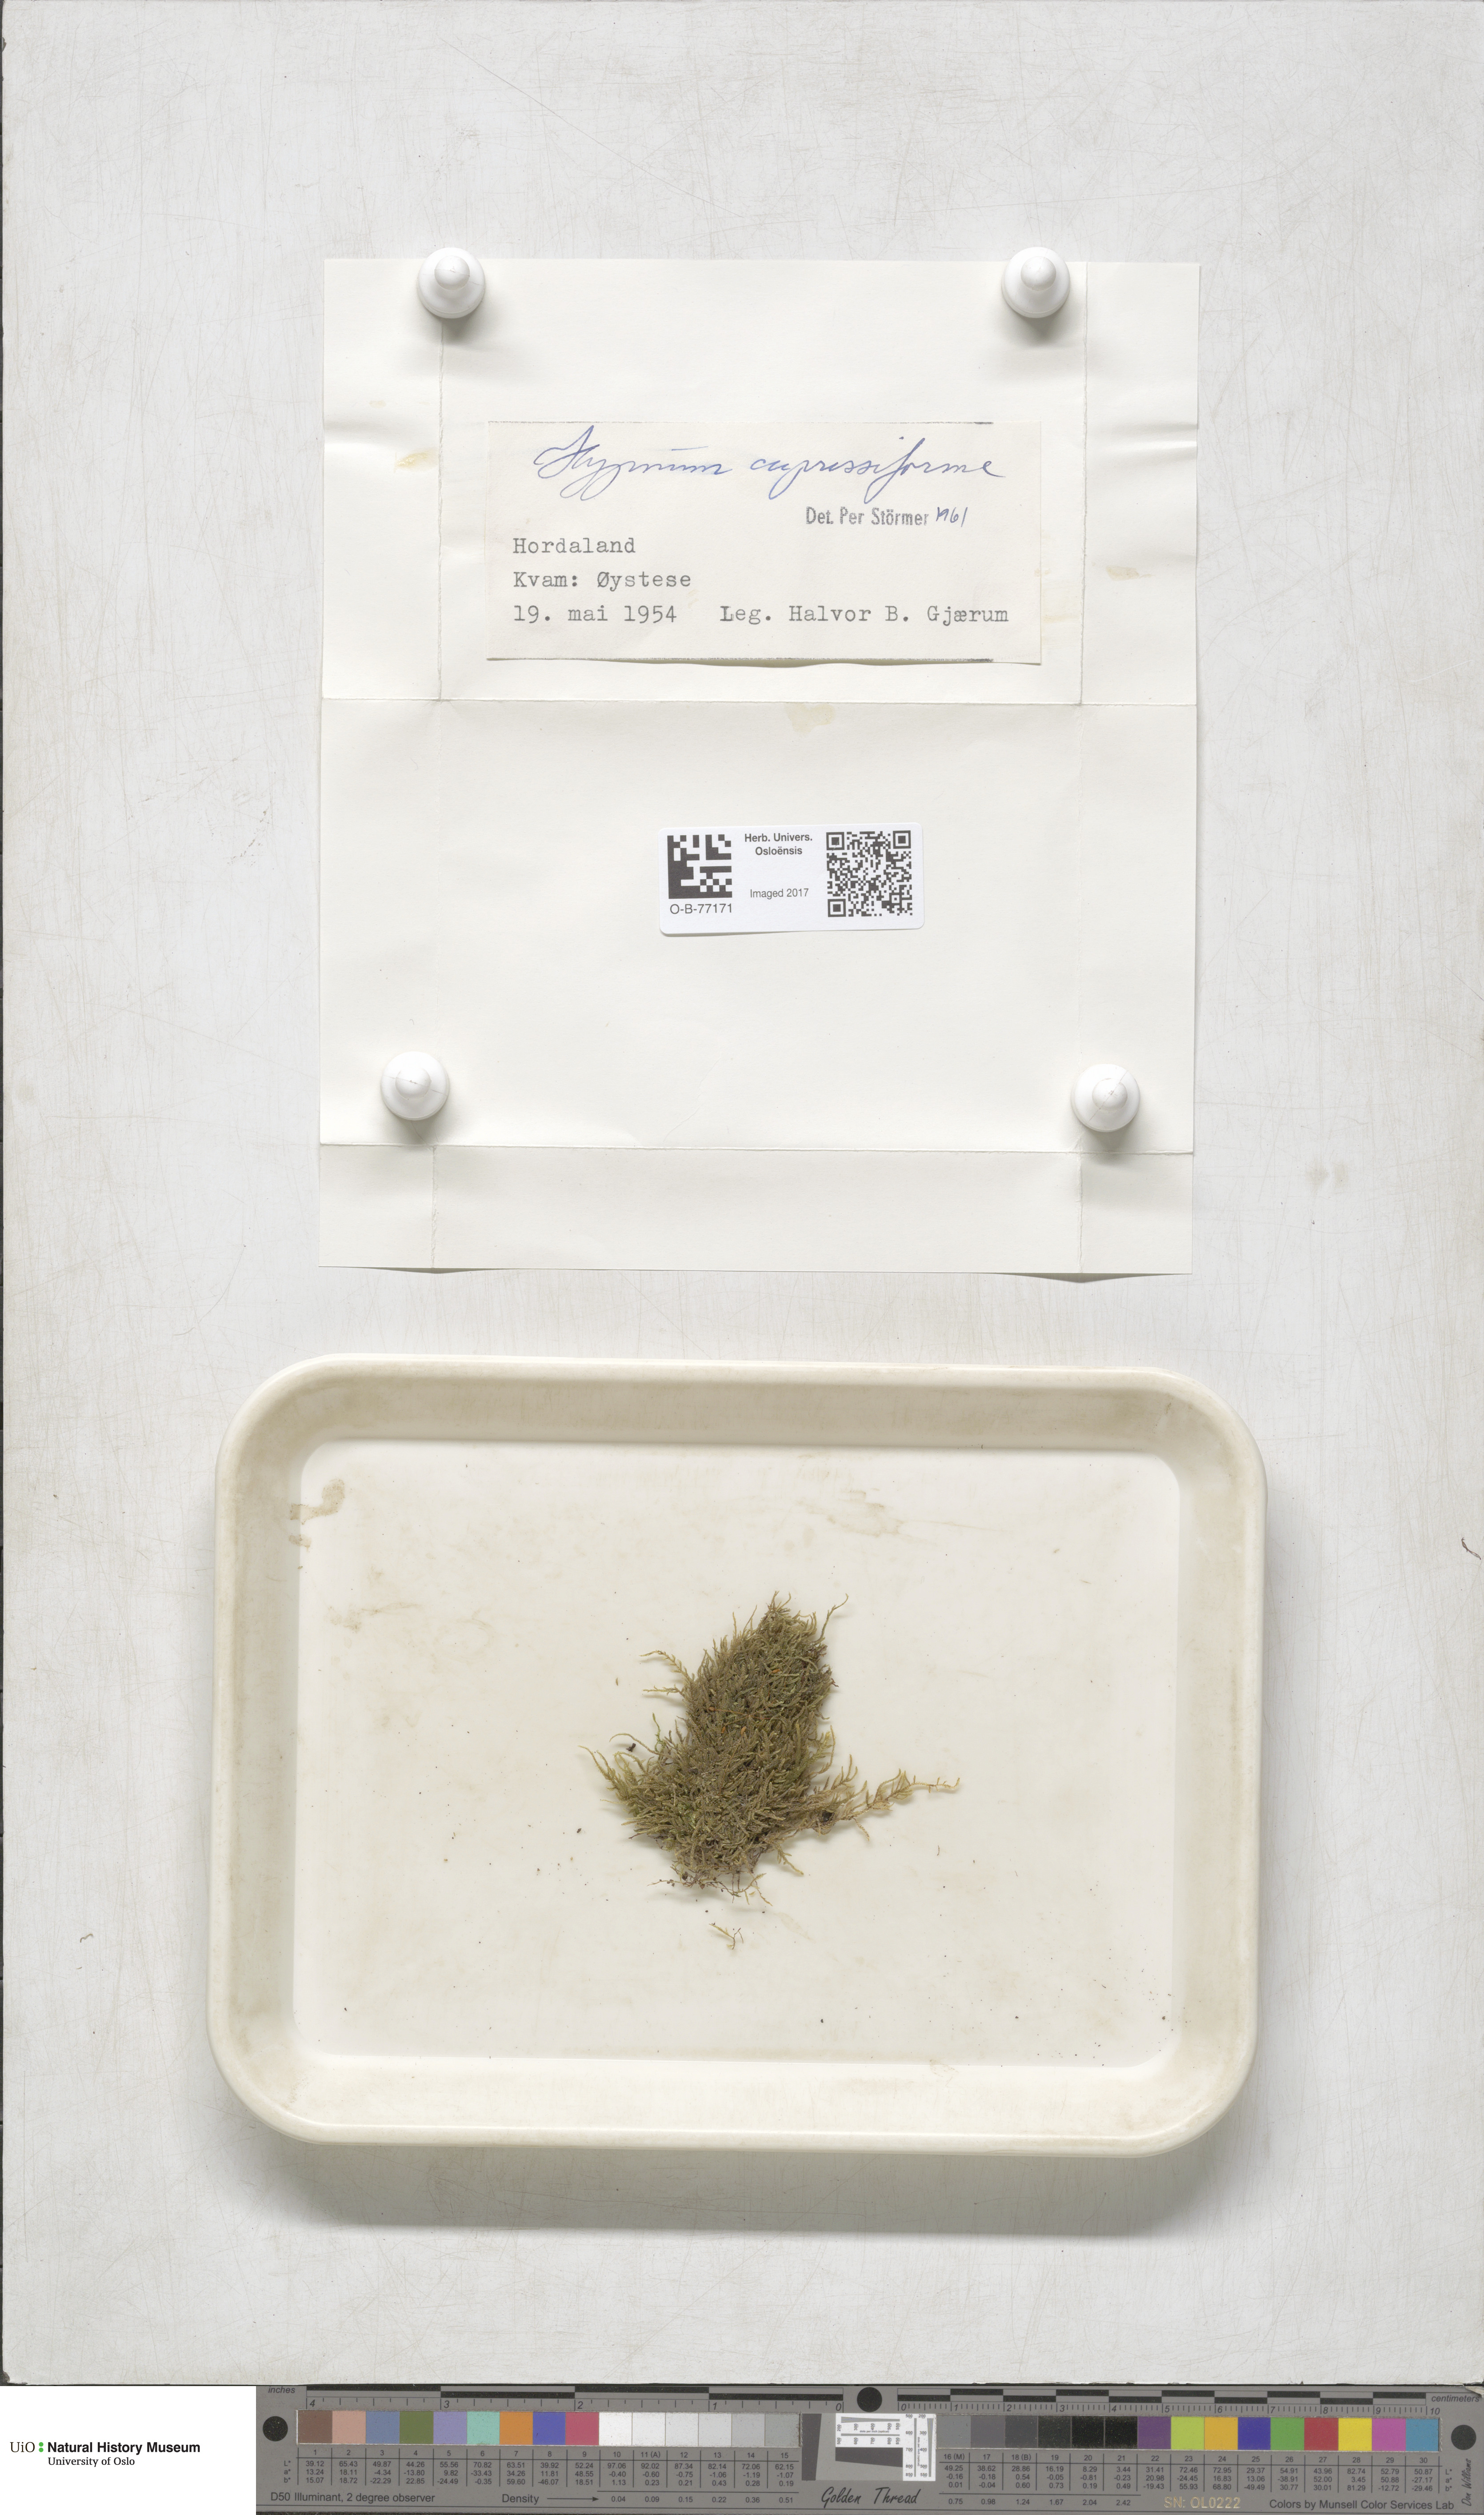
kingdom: Plantae
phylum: Bryophyta
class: Bryopsida
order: Hypnales
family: Hypnaceae
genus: Hypnum
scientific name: Hypnum cupressiforme
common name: Cypress-leaved plait-moss
